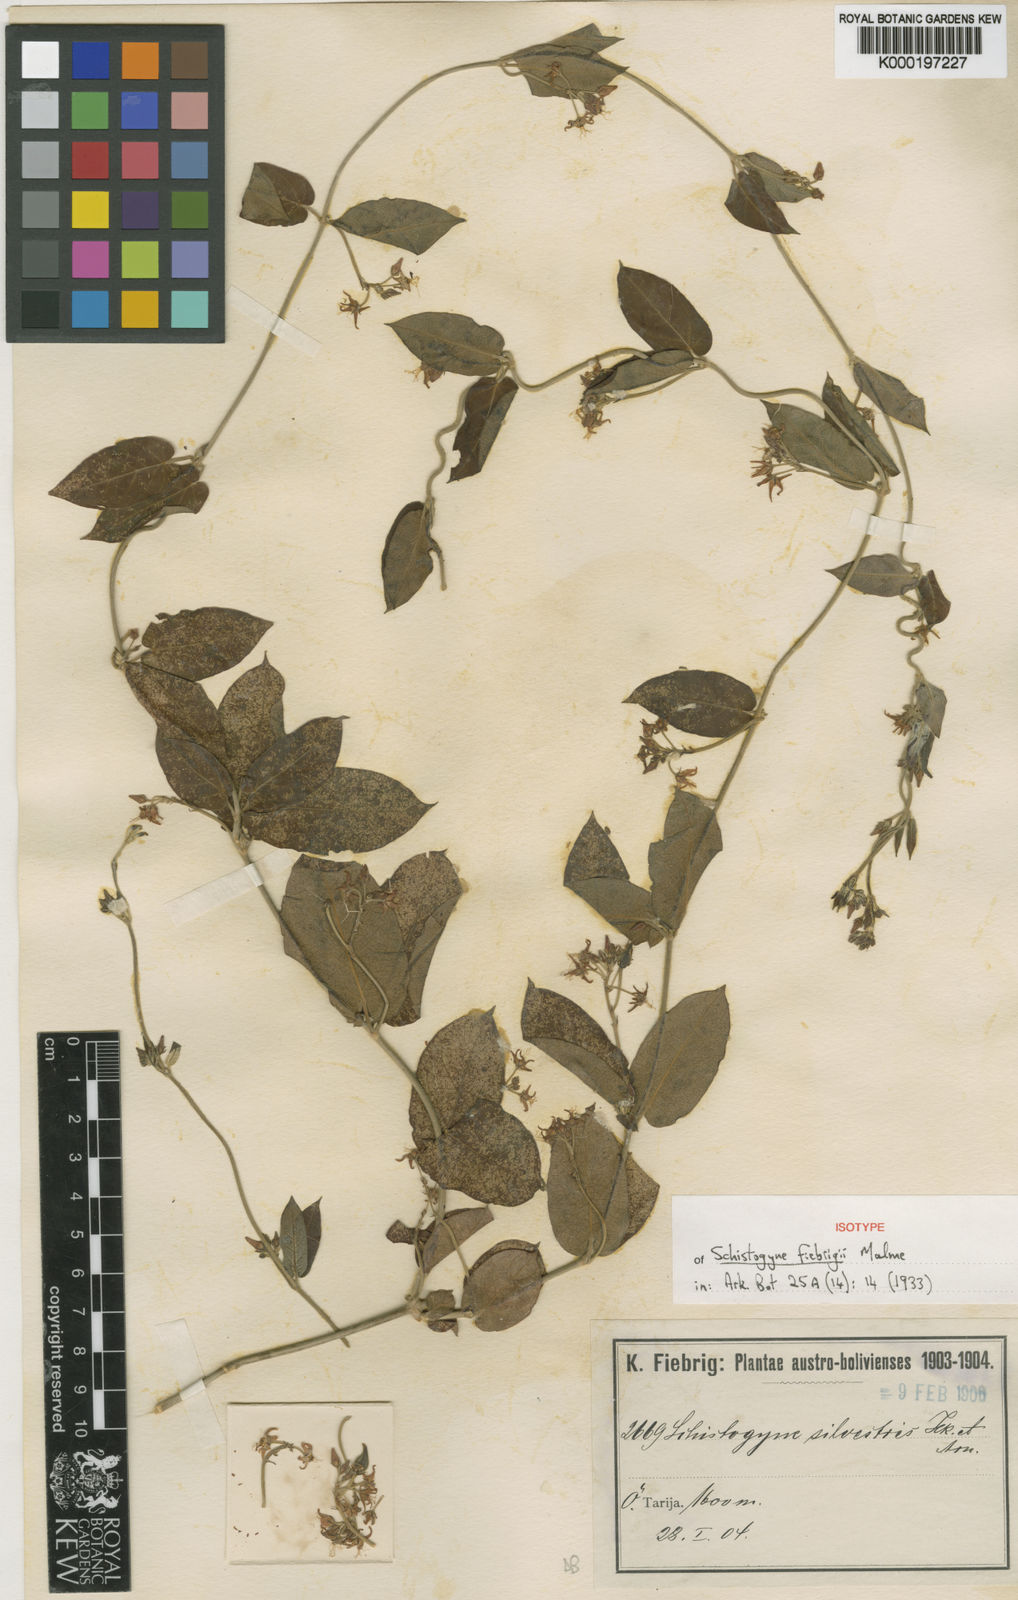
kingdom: Plantae
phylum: Tracheophyta
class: Magnoliopsida
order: Gentianales
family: Apocynaceae
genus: Oxypetalum
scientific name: Oxypetalum fiebrigii
